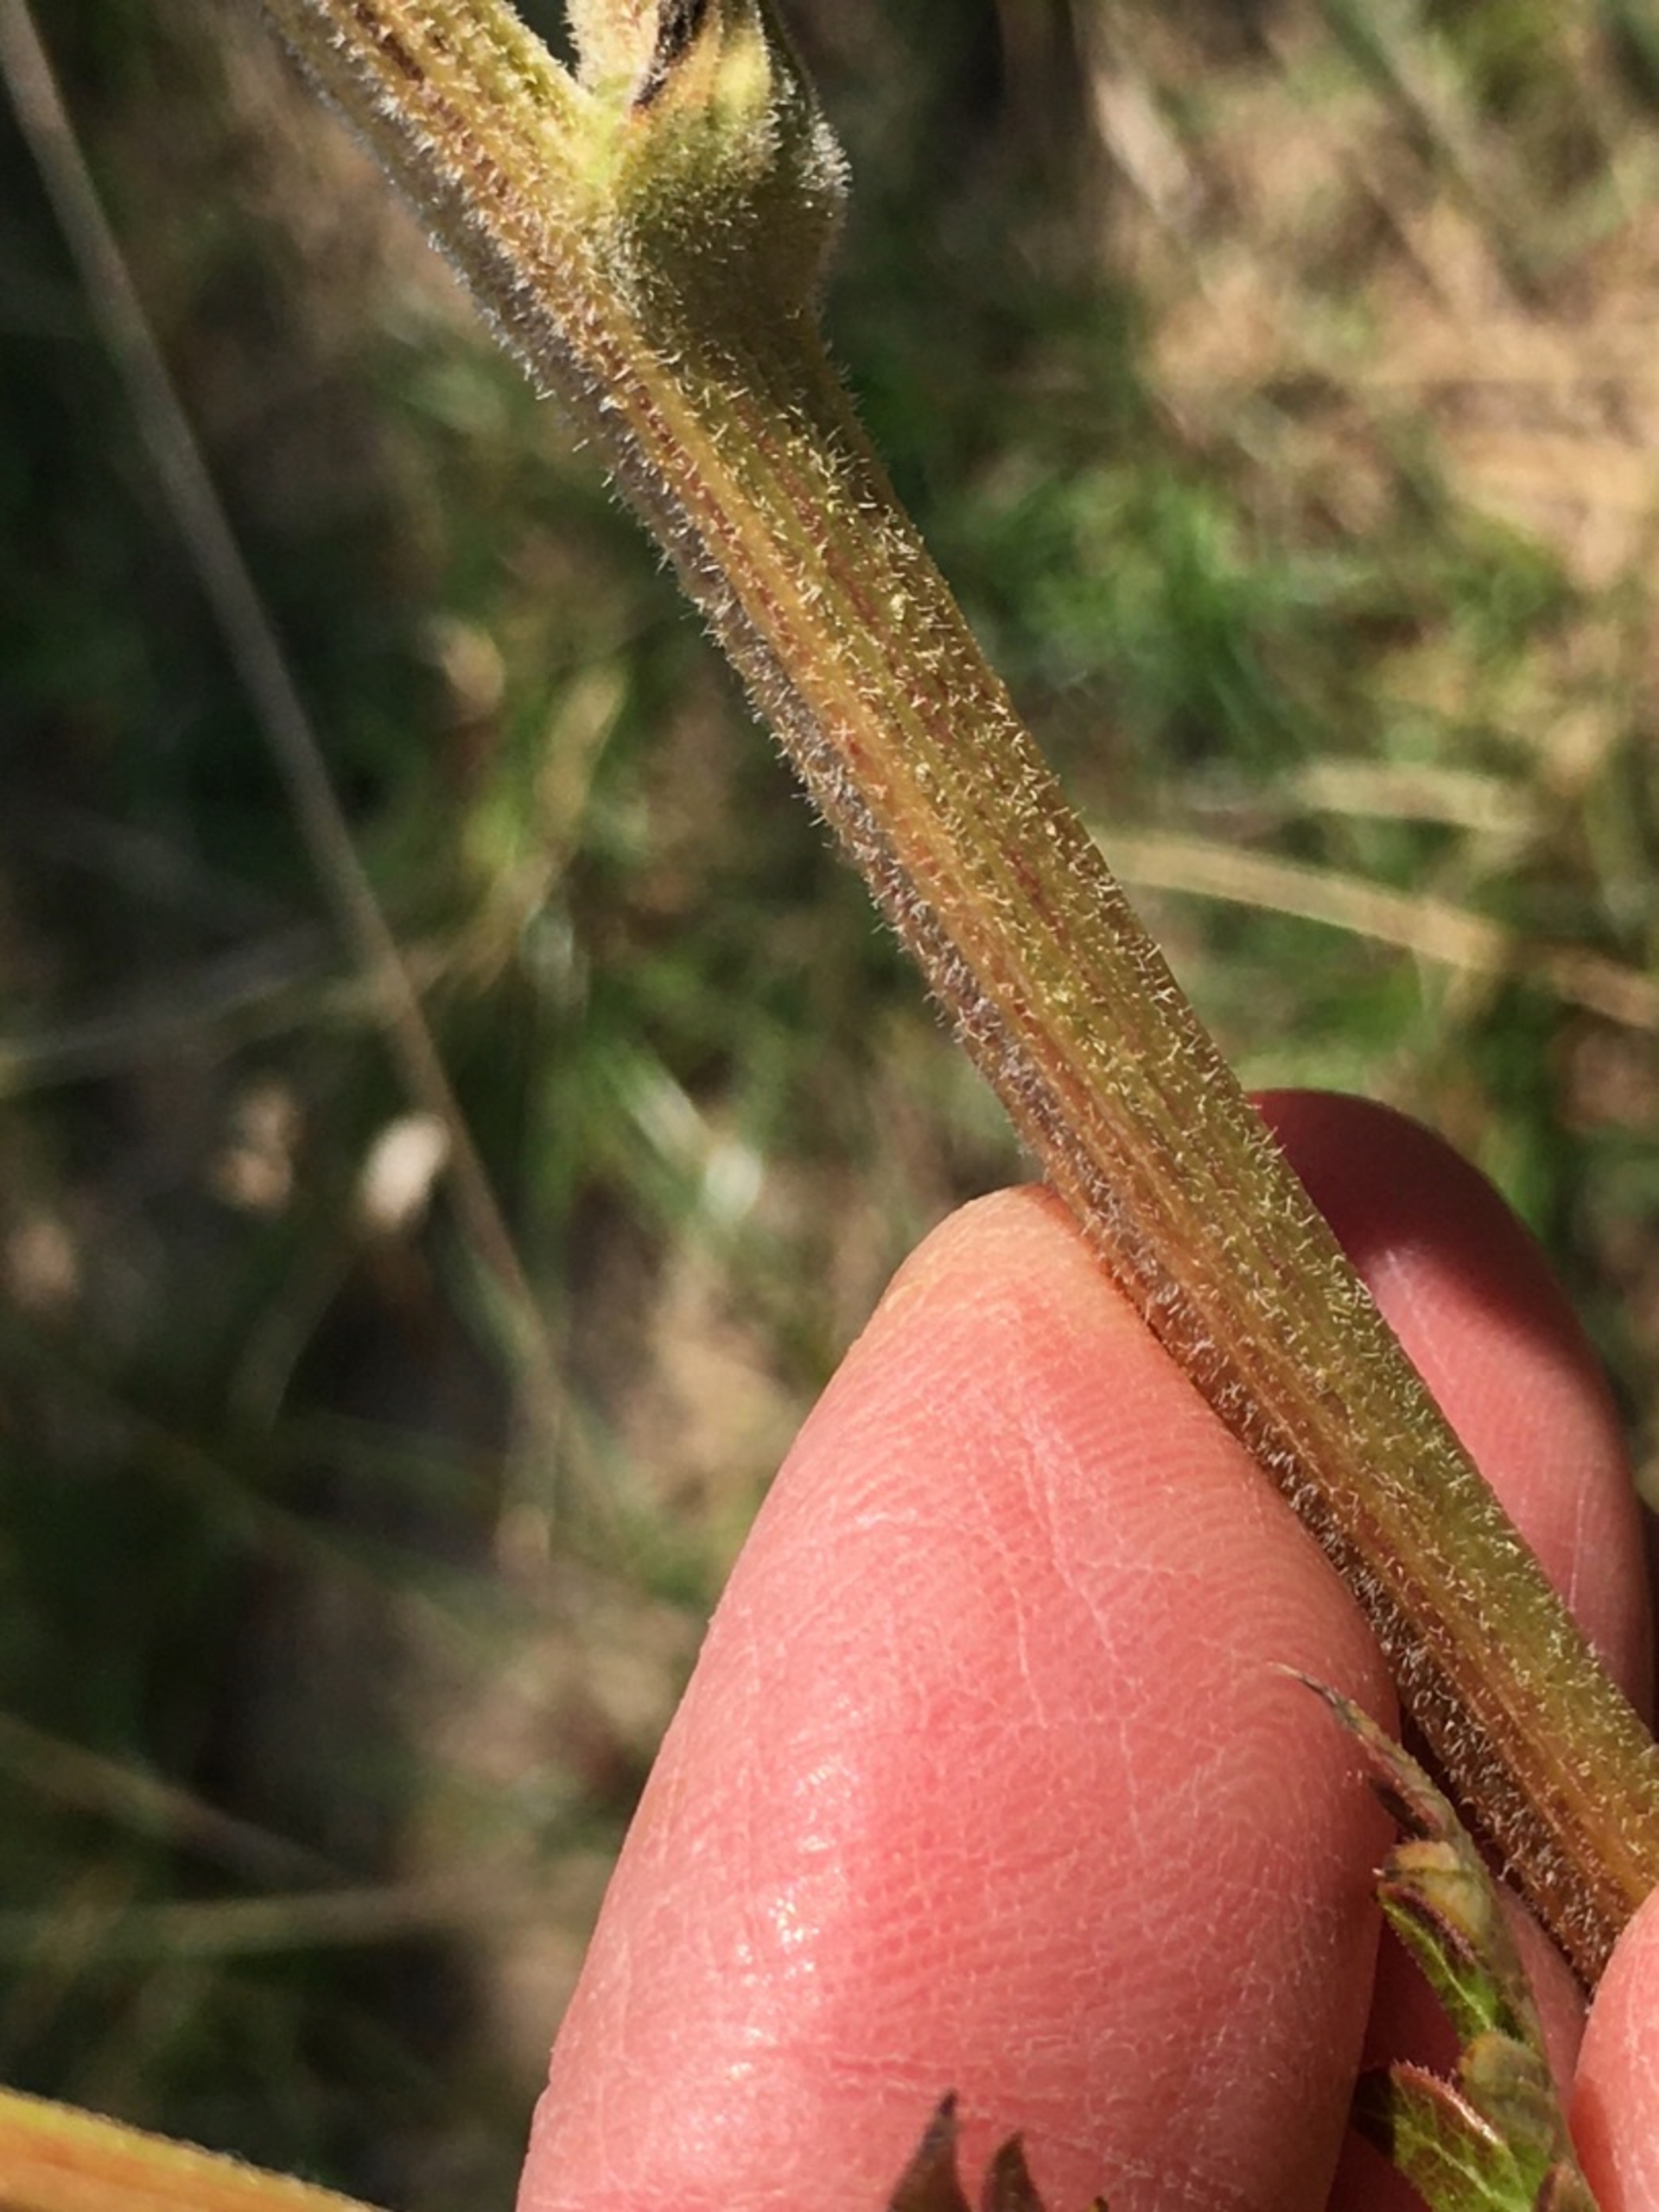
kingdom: Plantae
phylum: Tracheophyta
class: Magnoliopsida
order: Apiales
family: Apiaceae
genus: Seseli
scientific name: Seseli libanotis
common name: Hjorterod
